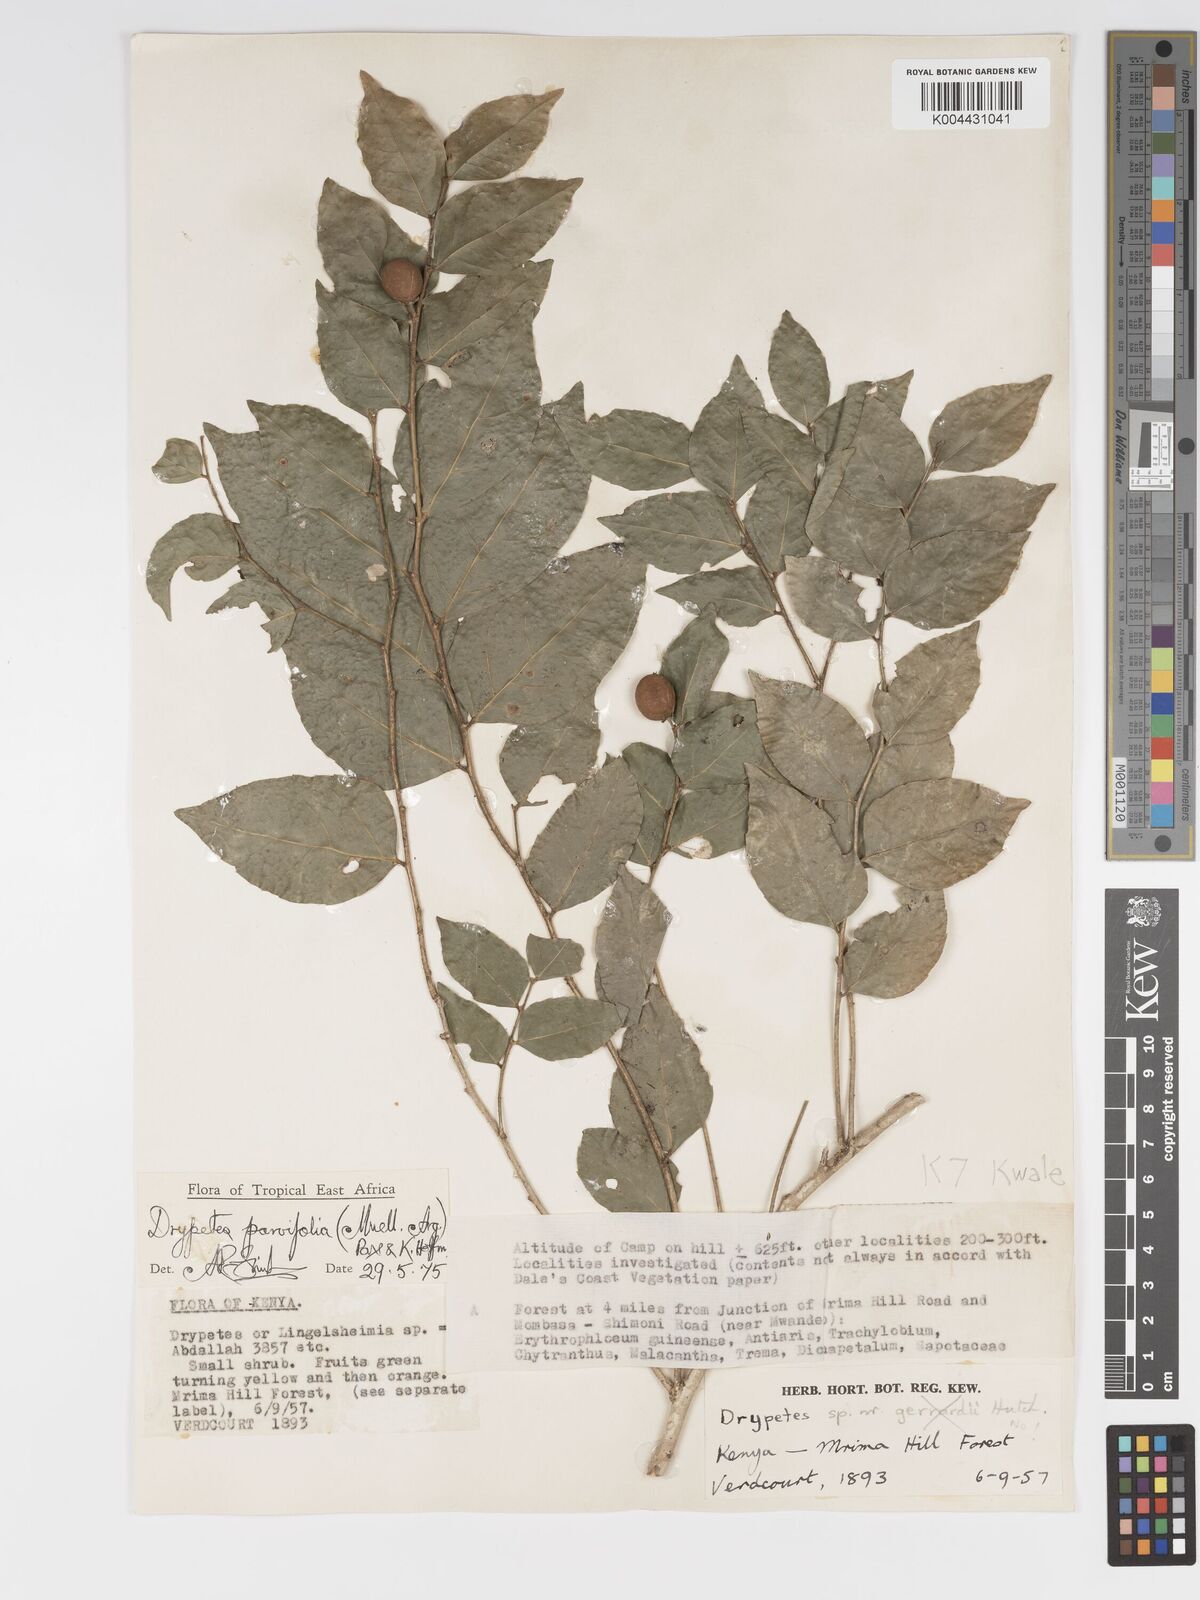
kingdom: Plantae
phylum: Tracheophyta
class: Magnoliopsida
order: Malpighiales
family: Putranjivaceae
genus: Drypetes
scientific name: Drypetes parvifolia
